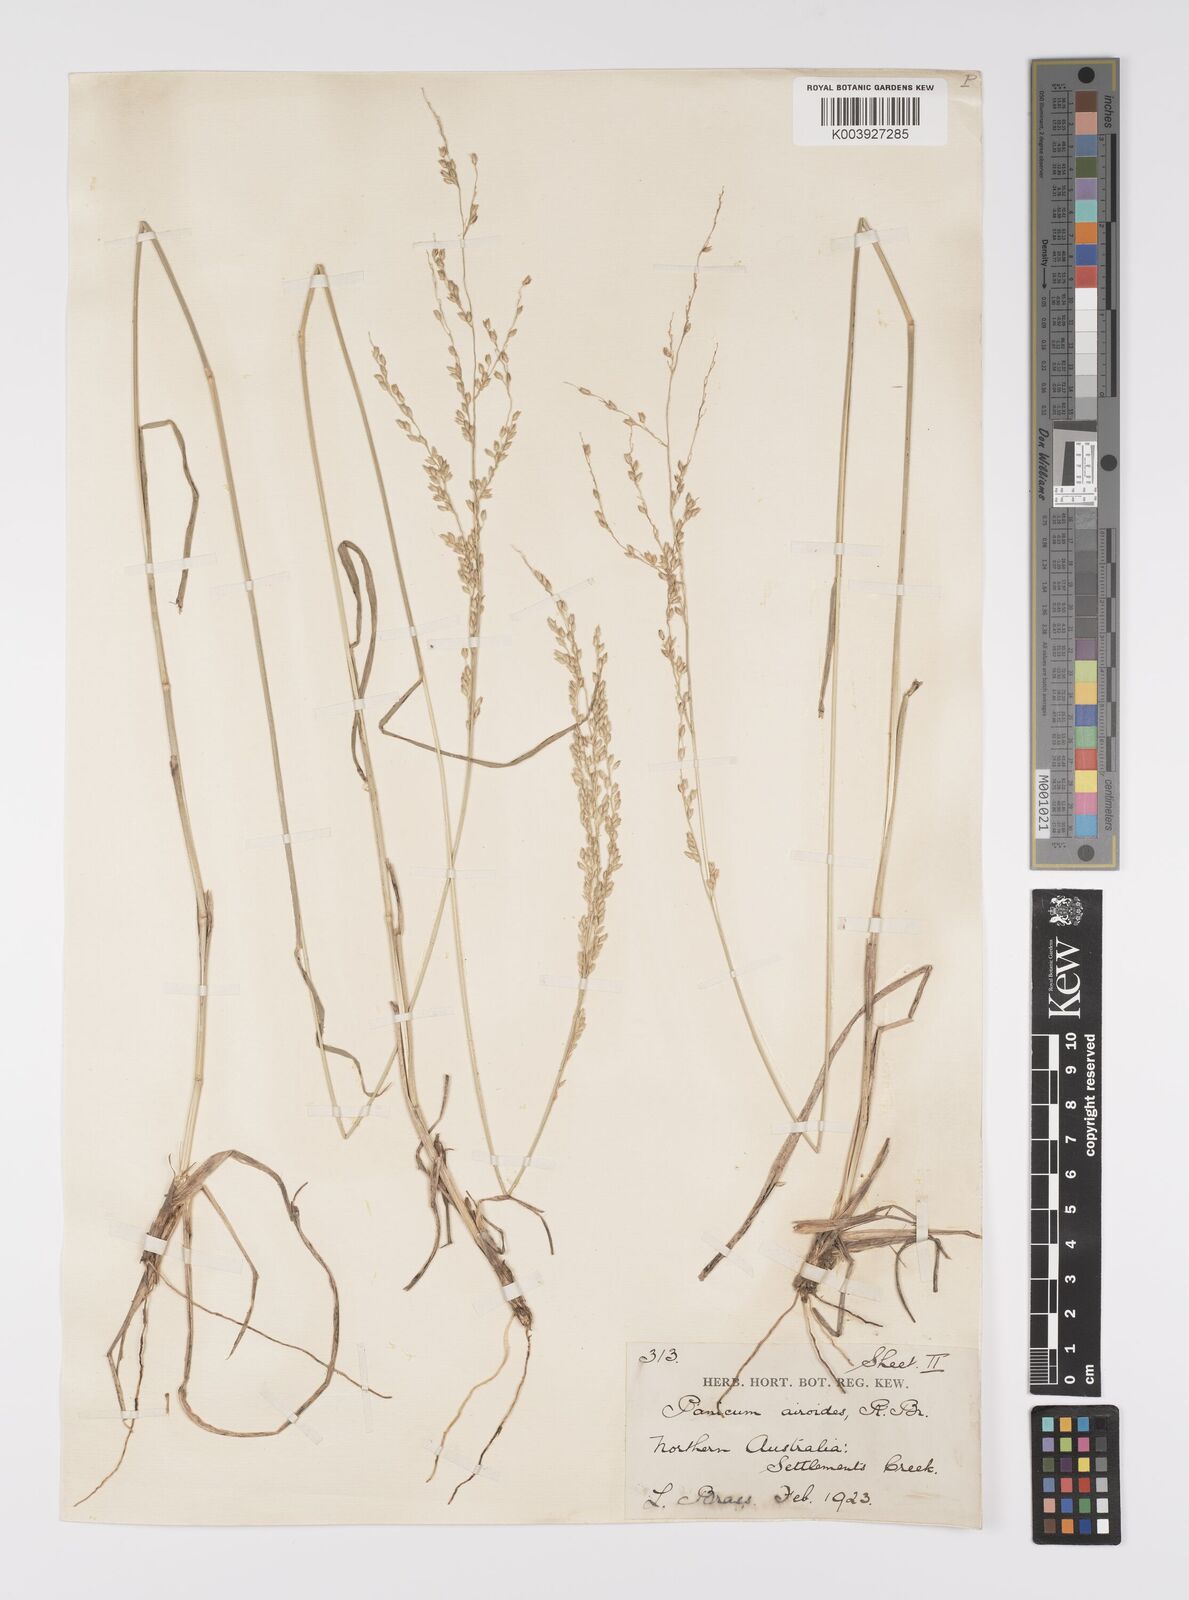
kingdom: Plantae
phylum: Tracheophyta
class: Liliopsida
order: Poales
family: Poaceae
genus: Whiteochloa
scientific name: Whiteochloa airoides
